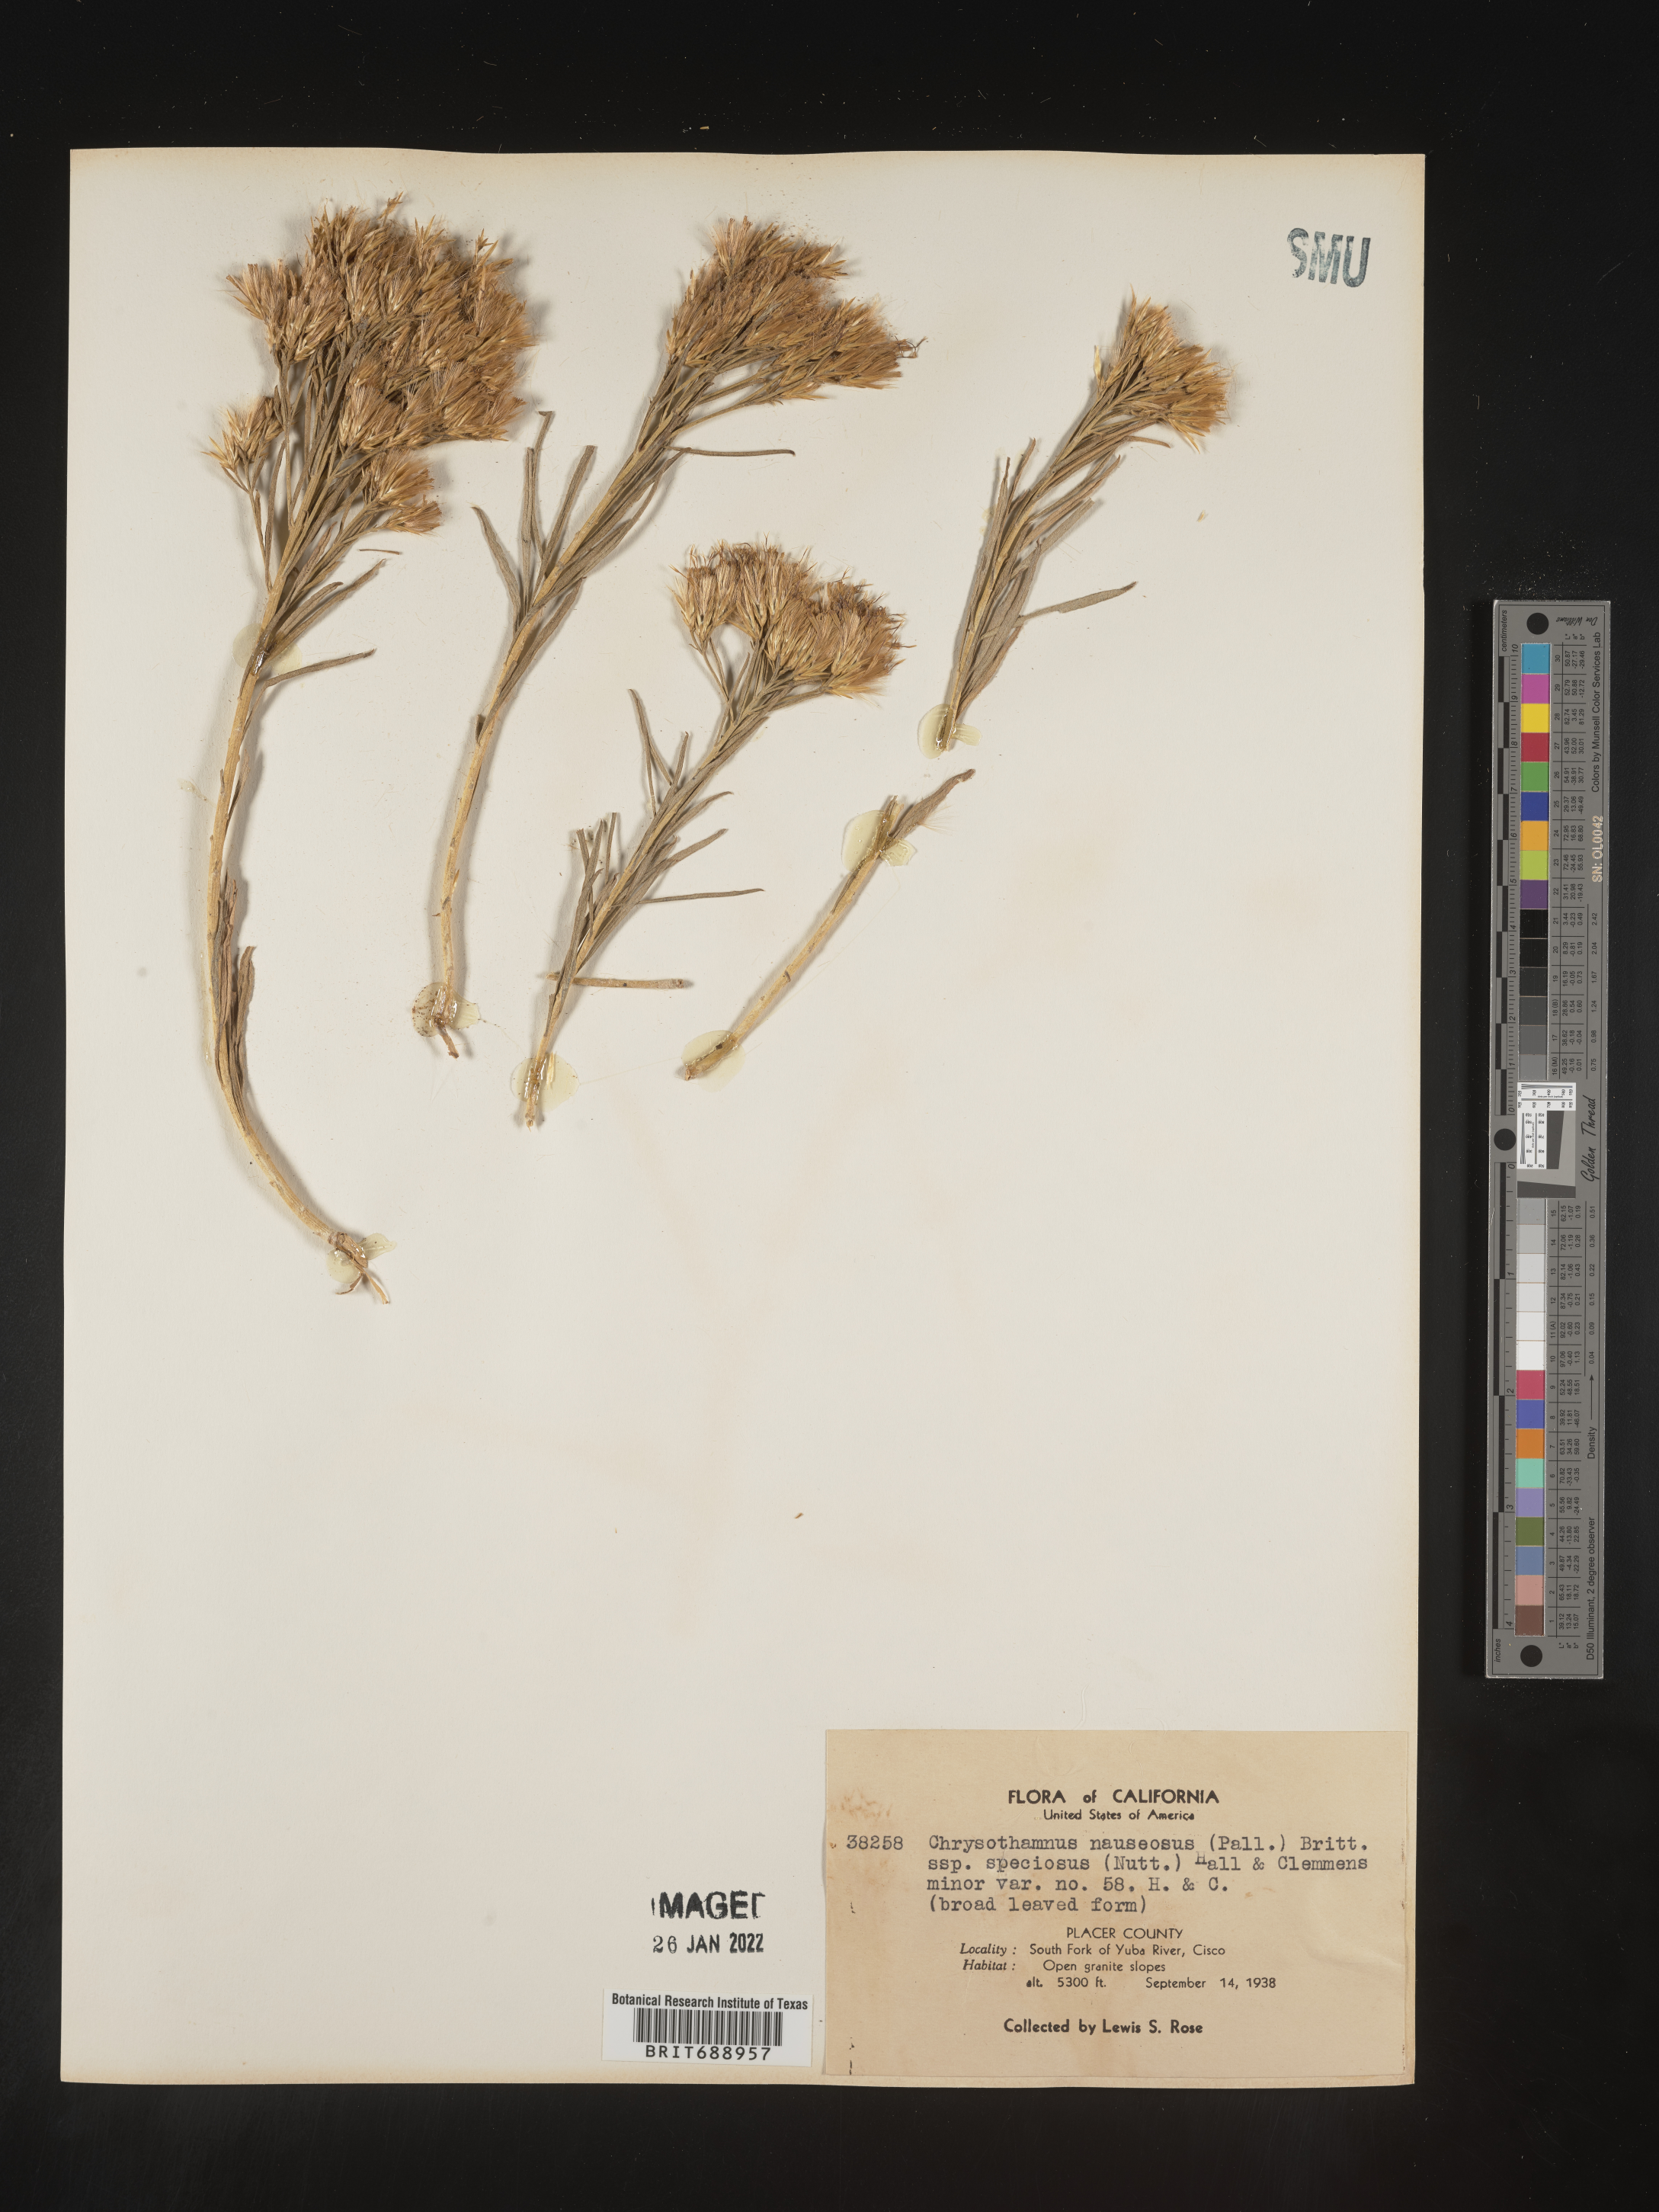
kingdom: Plantae
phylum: Tracheophyta
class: Magnoliopsida
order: Asterales
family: Asteraceae
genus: Ericameria
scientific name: Ericameria nauseosa
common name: Rubber rabbitbrush
